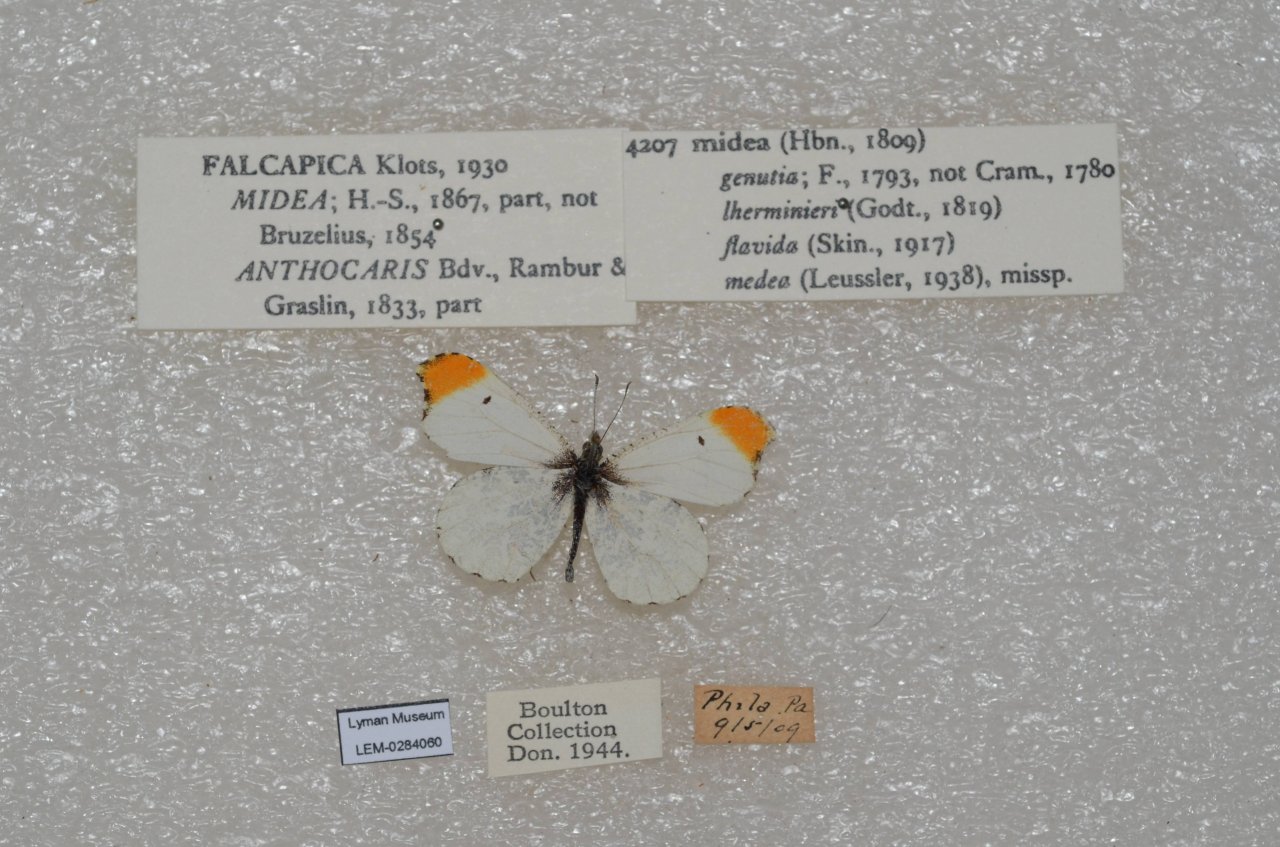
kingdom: Animalia
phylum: Arthropoda
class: Insecta
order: Lepidoptera
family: Pieridae
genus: Anthocharis
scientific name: Anthocharis midea
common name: Falcate Orangetip
